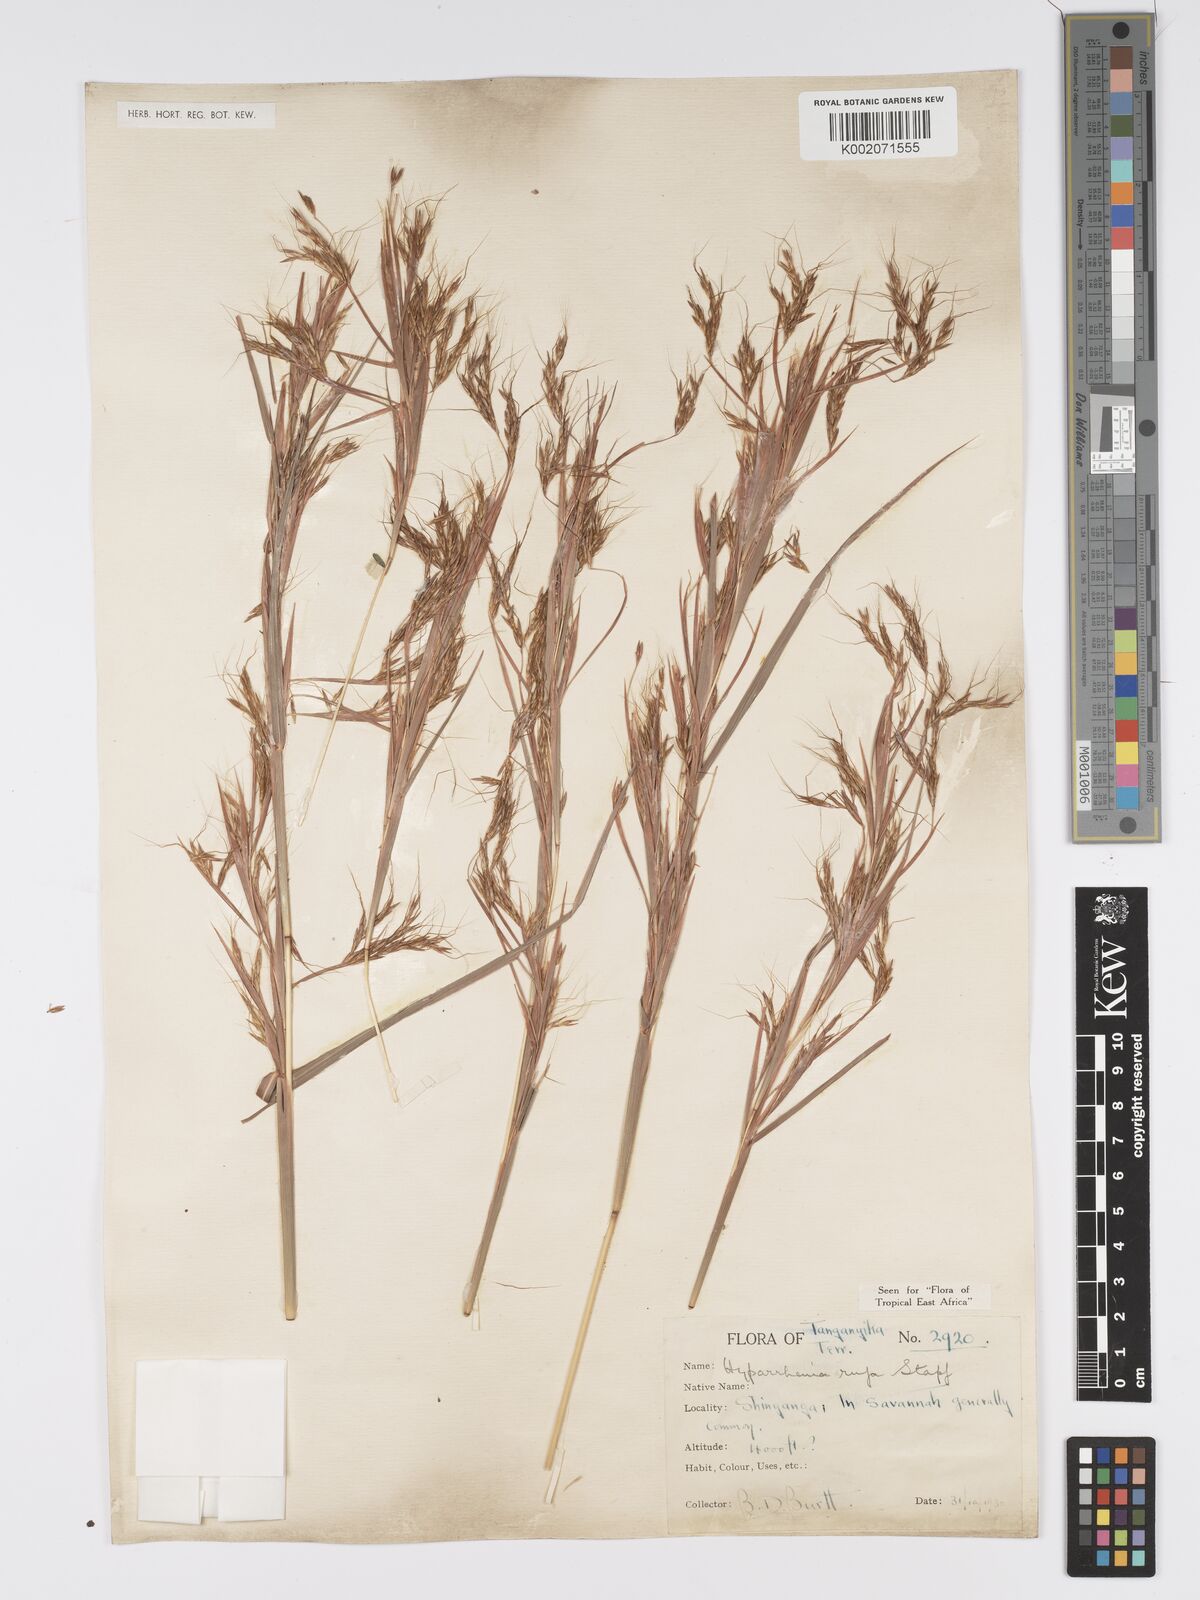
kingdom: Plantae
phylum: Tracheophyta
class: Liliopsida
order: Poales
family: Poaceae
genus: Hyparrhenia
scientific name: Hyparrhenia rufa
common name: Jaraguagrass
